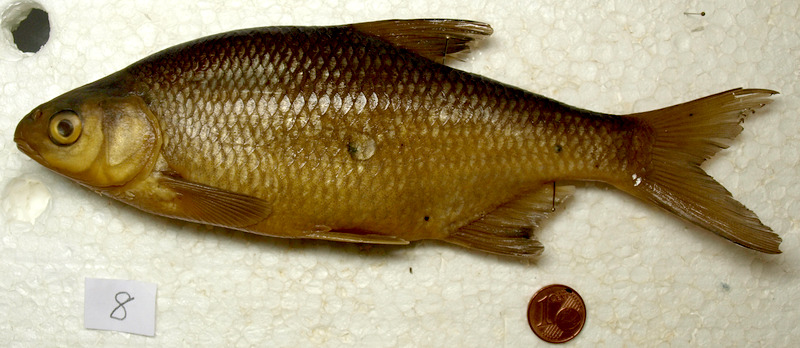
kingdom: Animalia
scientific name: Animalia
